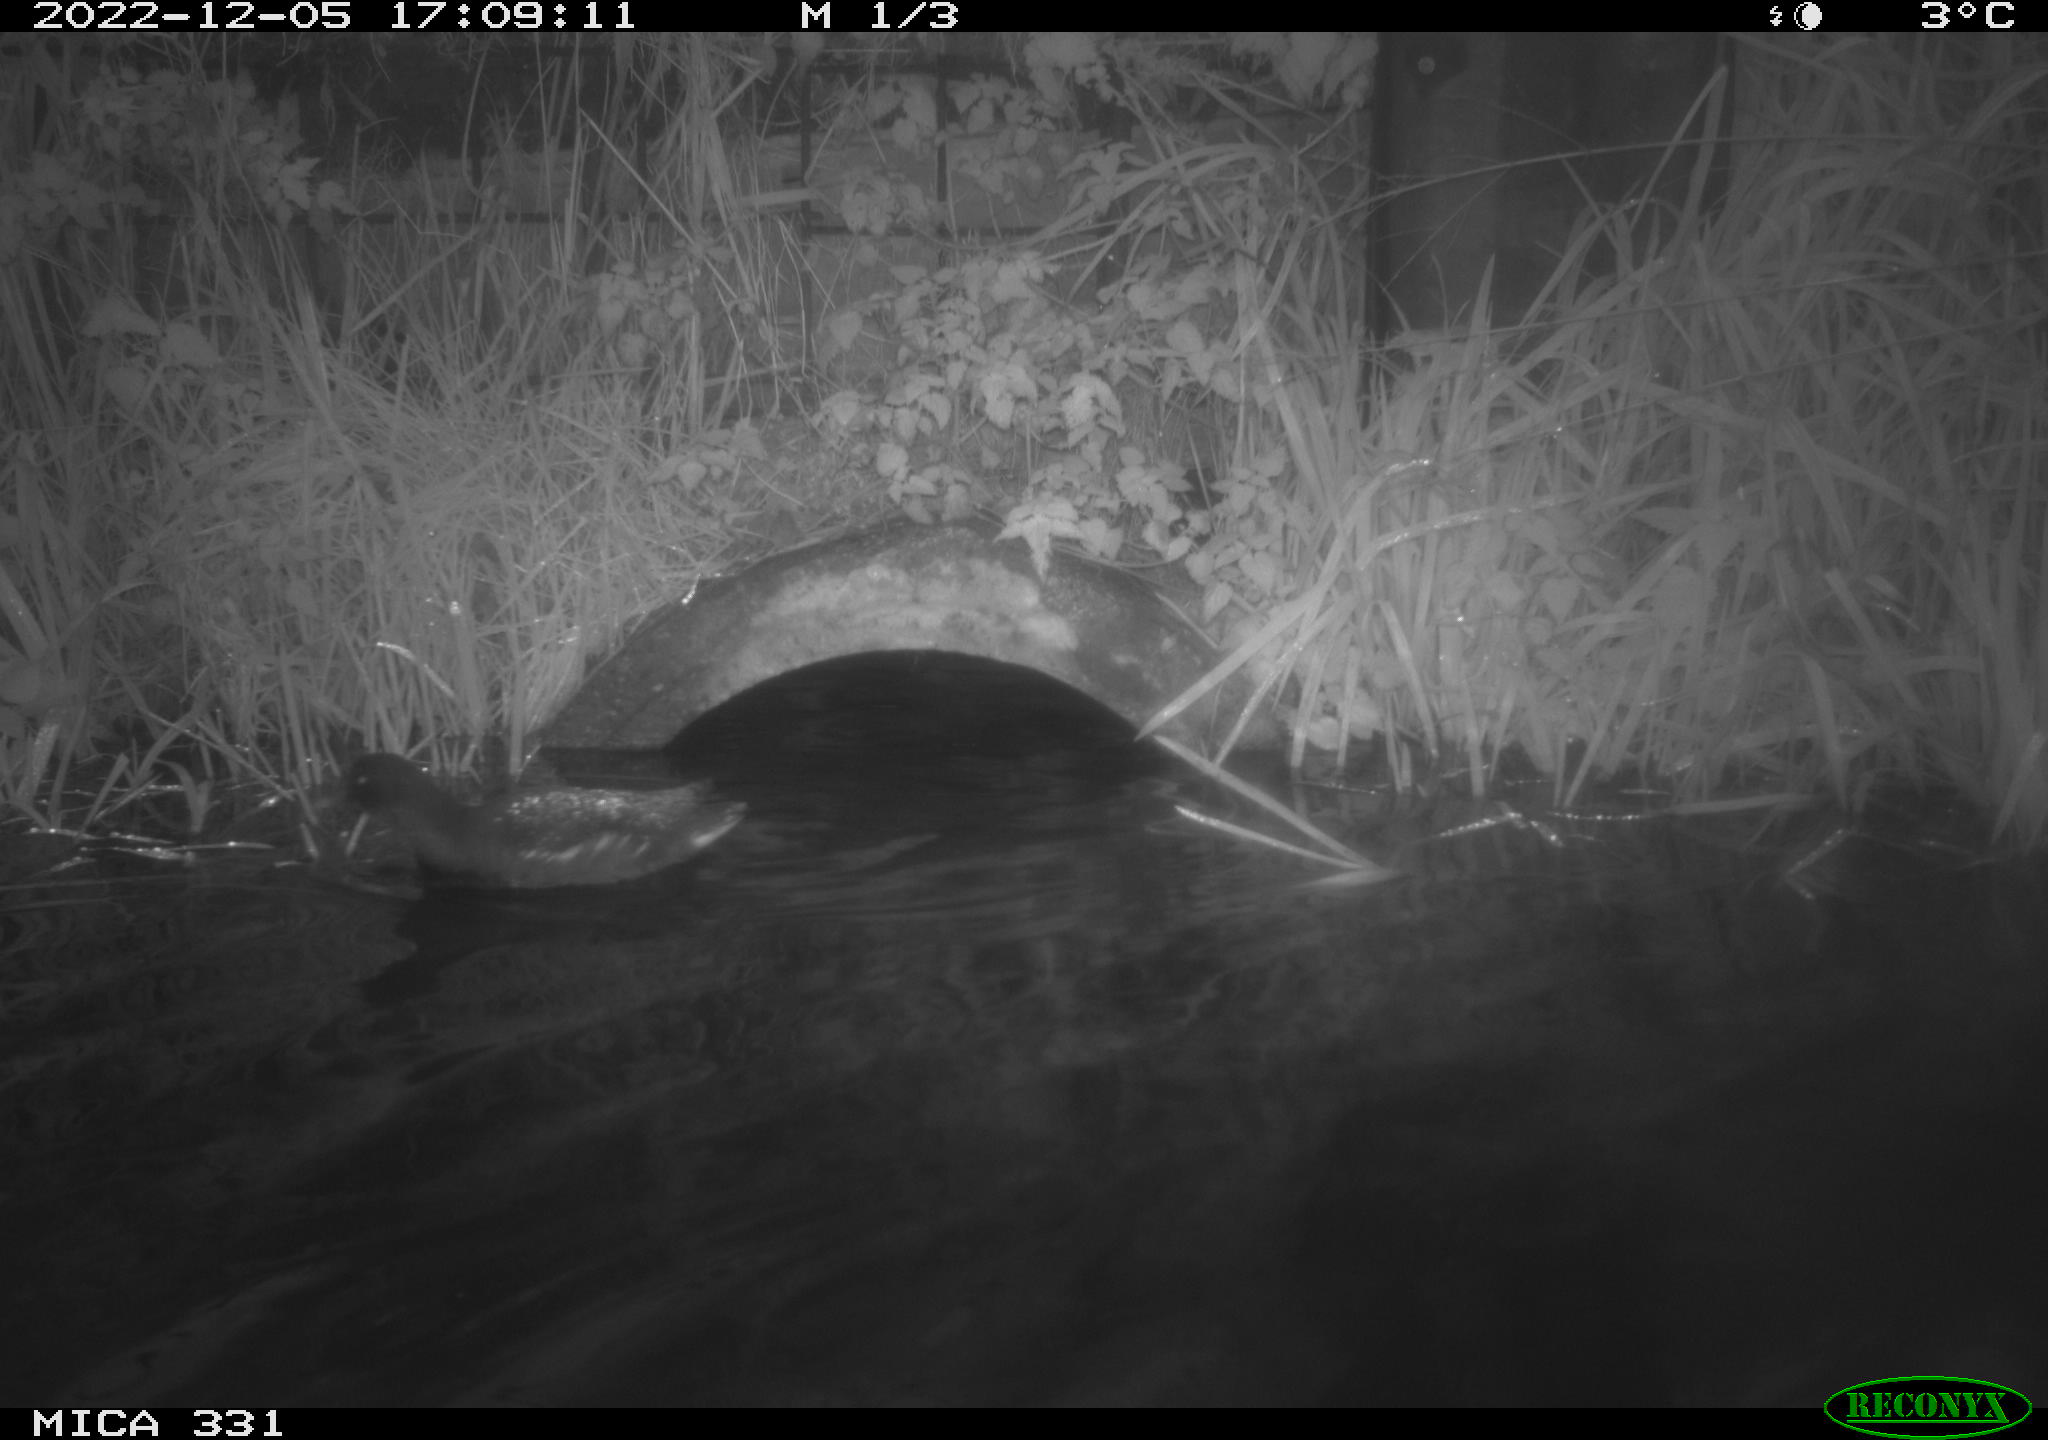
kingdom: Animalia
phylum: Chordata
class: Aves
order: Gruiformes
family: Rallidae
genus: Gallinula
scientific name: Gallinula chloropus
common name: Common moorhen
